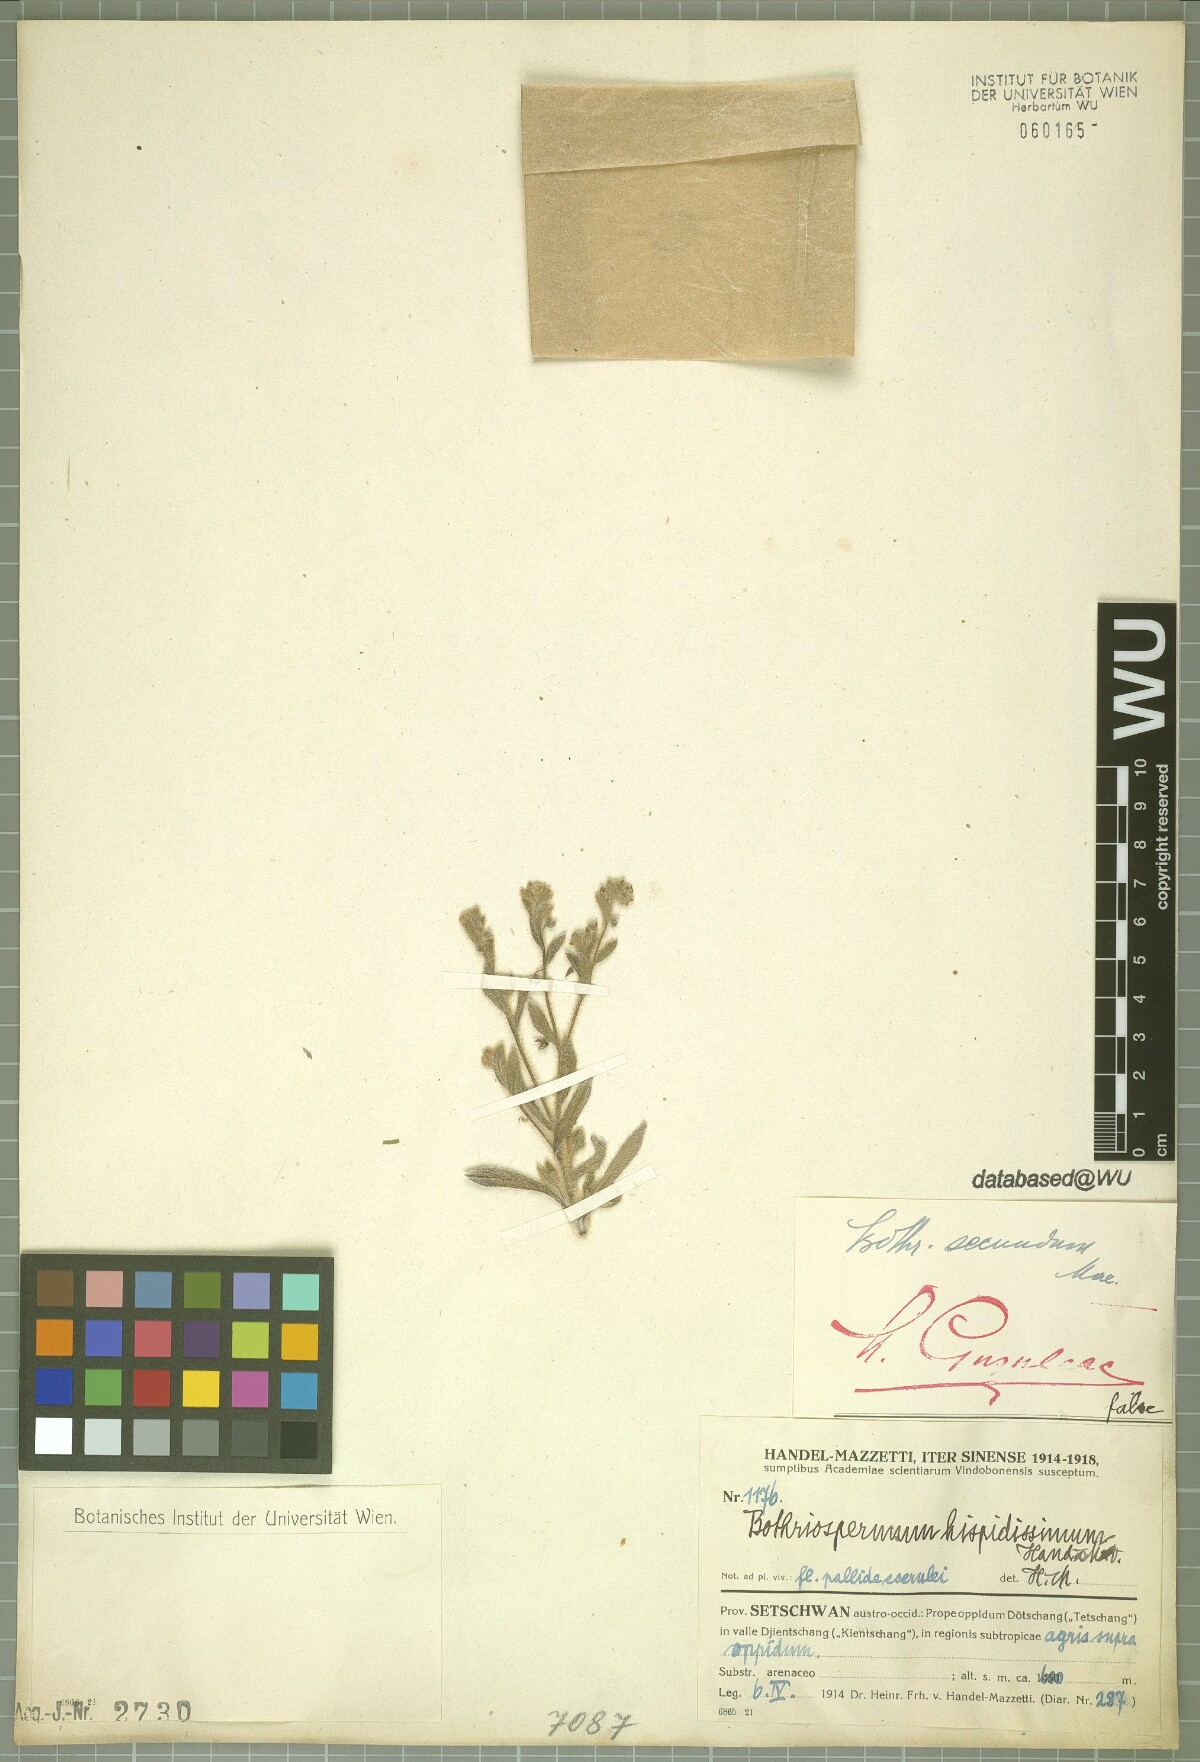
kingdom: Plantae
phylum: Tracheophyta
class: Magnoliopsida
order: Boraginales
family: Boraginaceae
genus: Bothriospermum
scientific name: Bothriospermum hispidissimum
